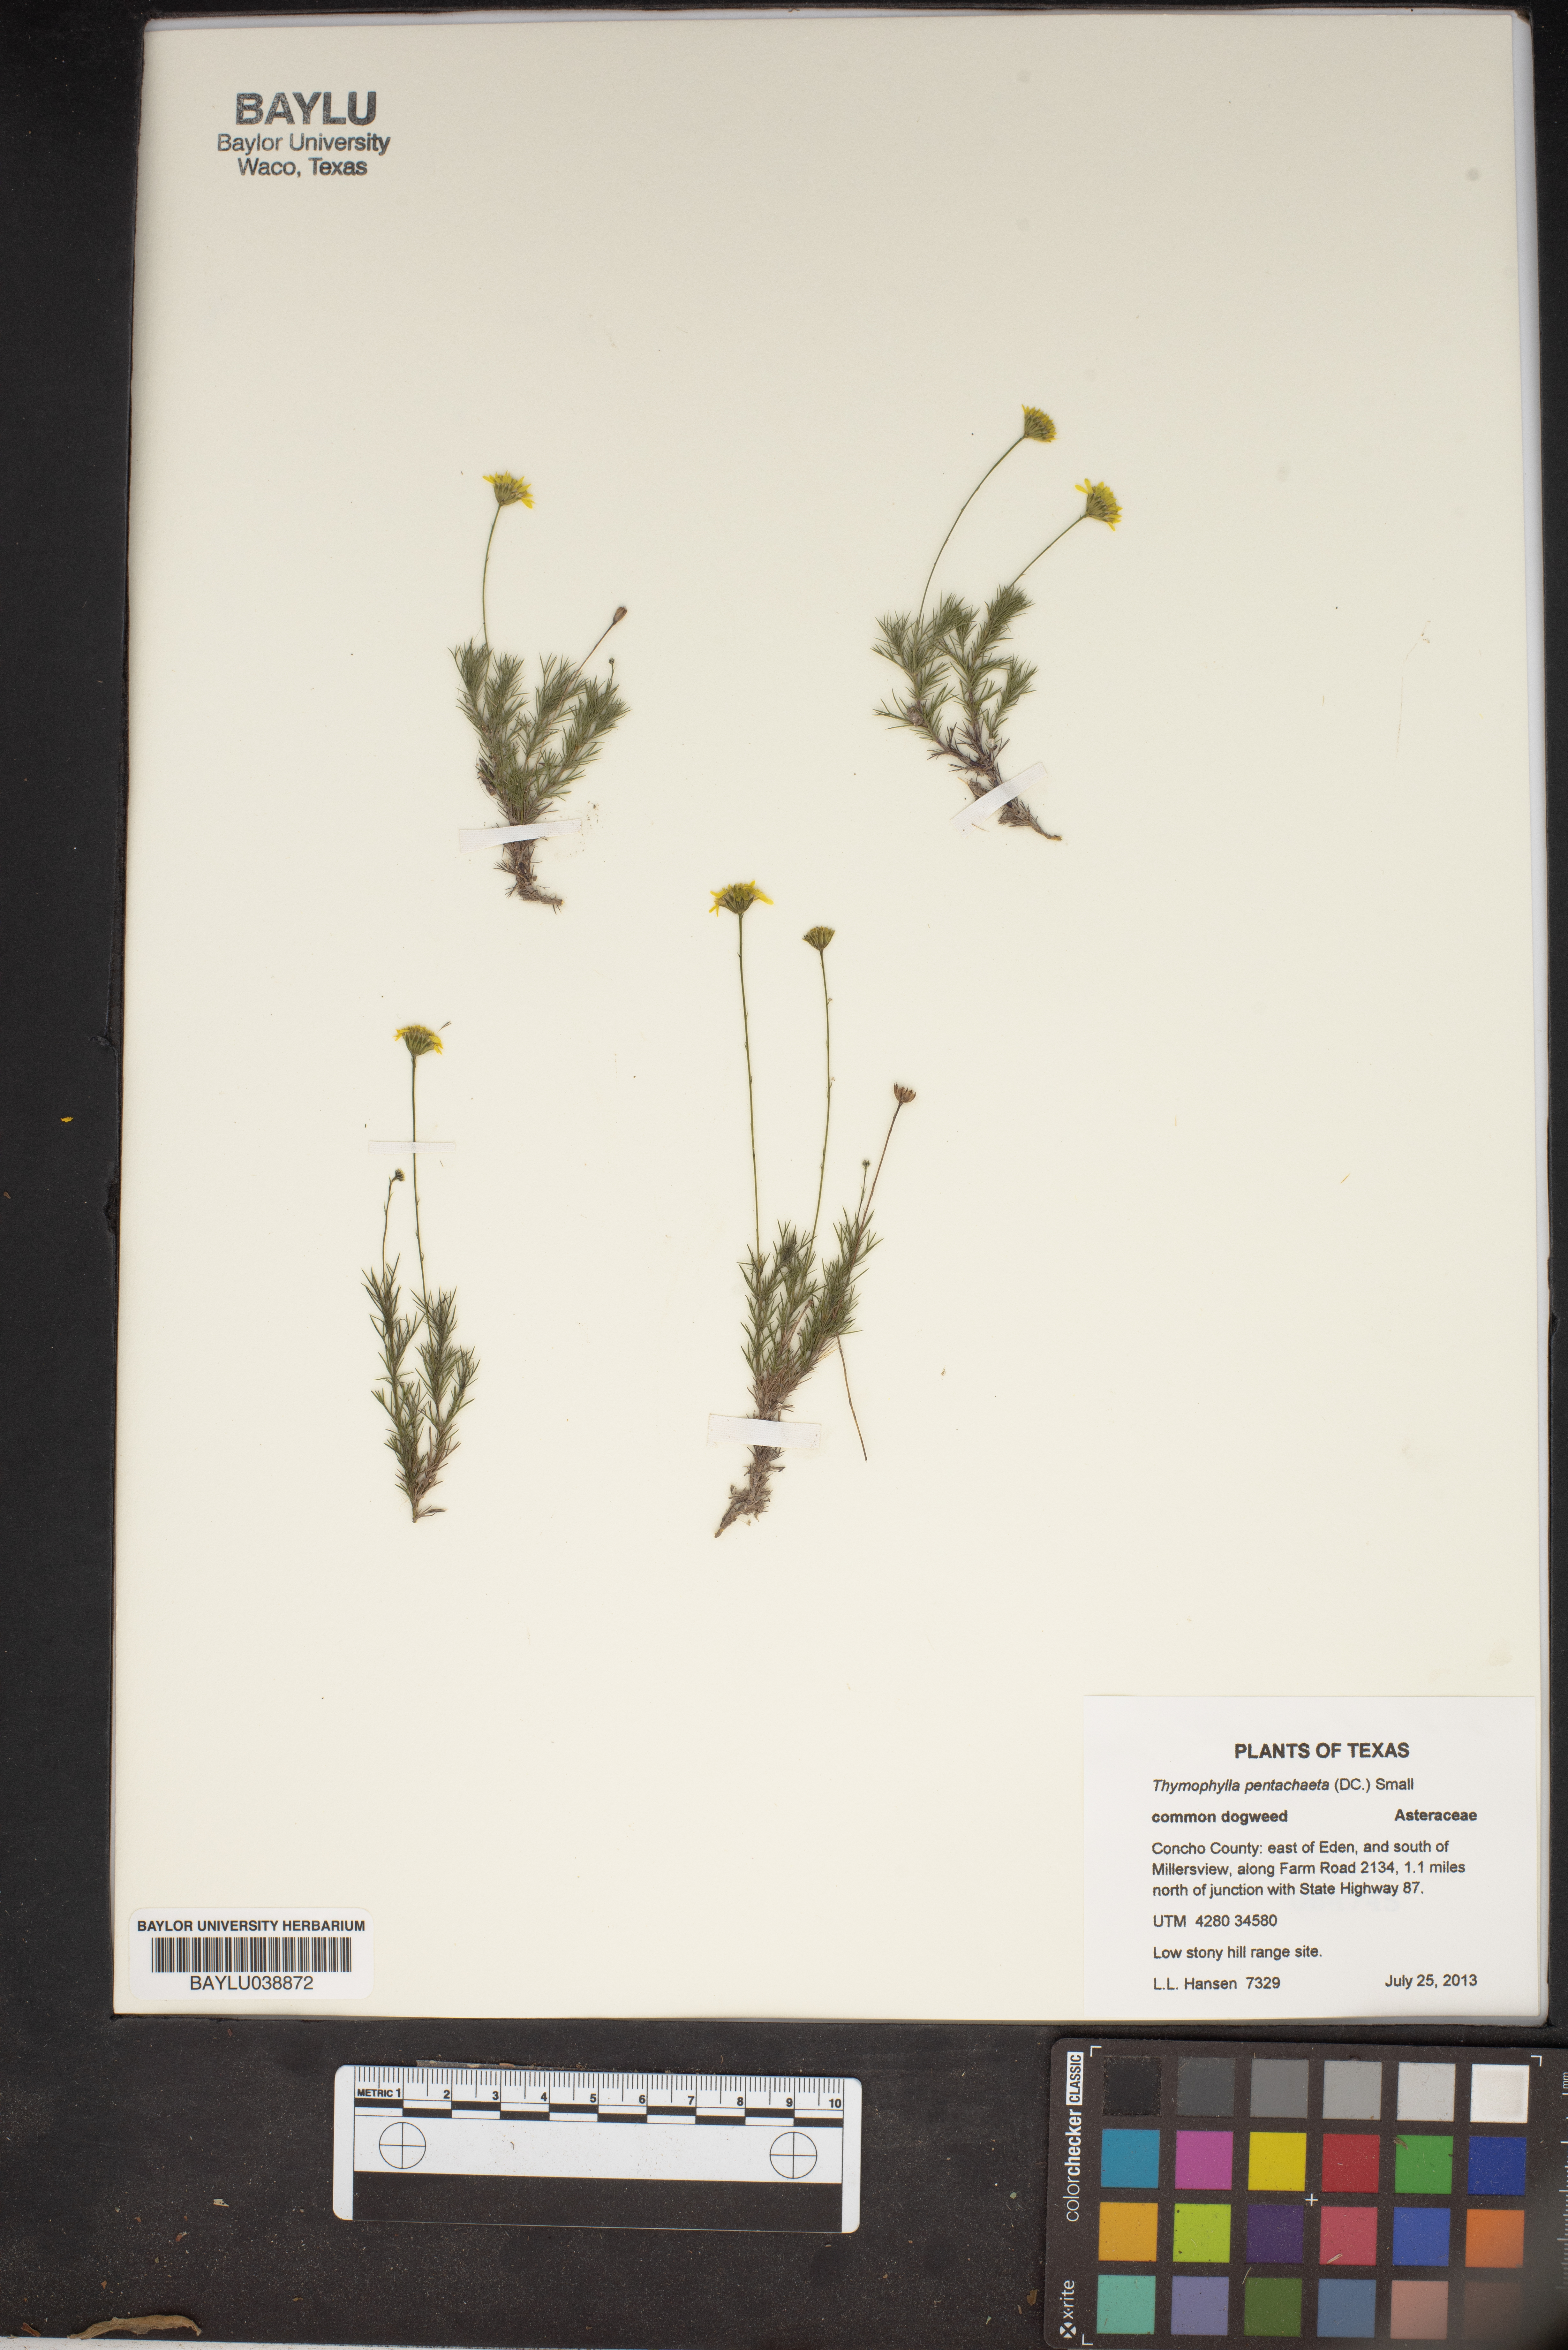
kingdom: Plantae
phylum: Tracheophyta
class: Magnoliopsida
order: Asterales
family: Asteraceae
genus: Thymophylla
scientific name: Thymophylla pentachaeta
